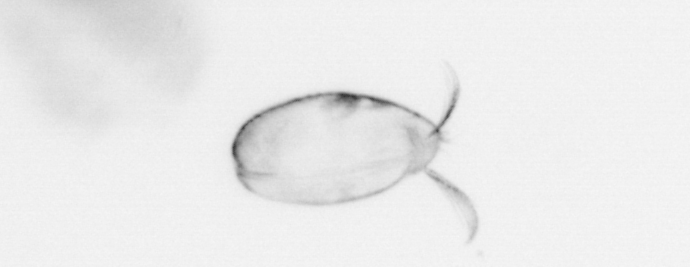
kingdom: Chromista
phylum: Ochrophyta
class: Bacillariophyceae
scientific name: Bacillariophyceae
